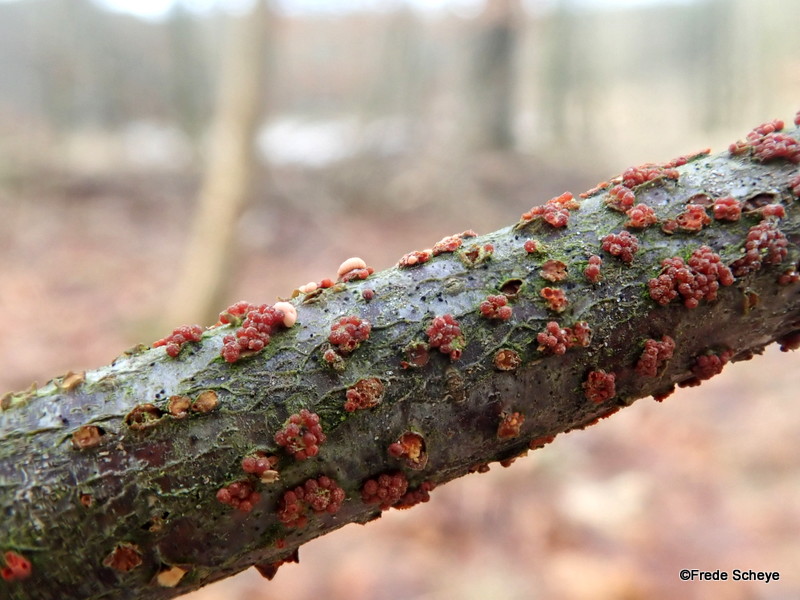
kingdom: Fungi
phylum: Ascomycota
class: Sordariomycetes
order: Hypocreales
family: Nectriaceae
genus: Nectria
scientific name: Nectria cinnabarina
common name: almindelig cinnobersvamp
